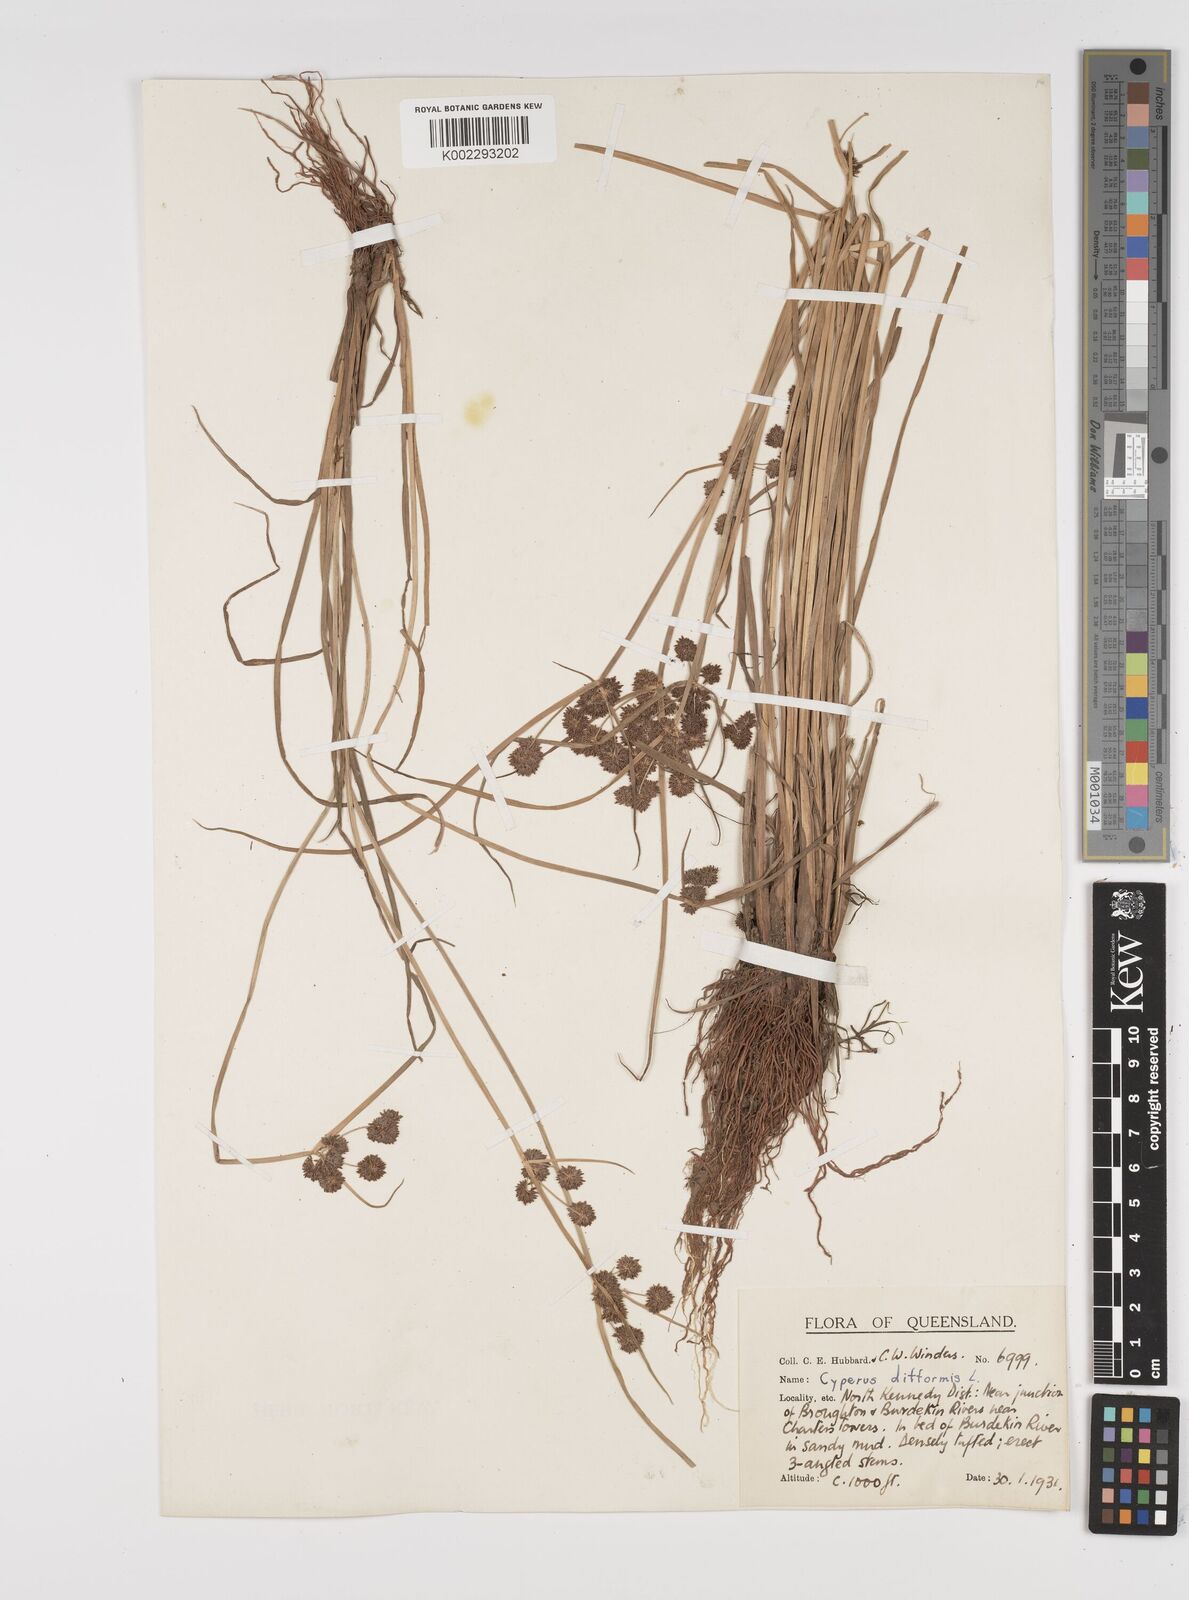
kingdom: Plantae
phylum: Tracheophyta
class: Liliopsida
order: Poales
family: Cyperaceae
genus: Cyperus
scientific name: Cyperus difformis
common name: Variable flatsedge
